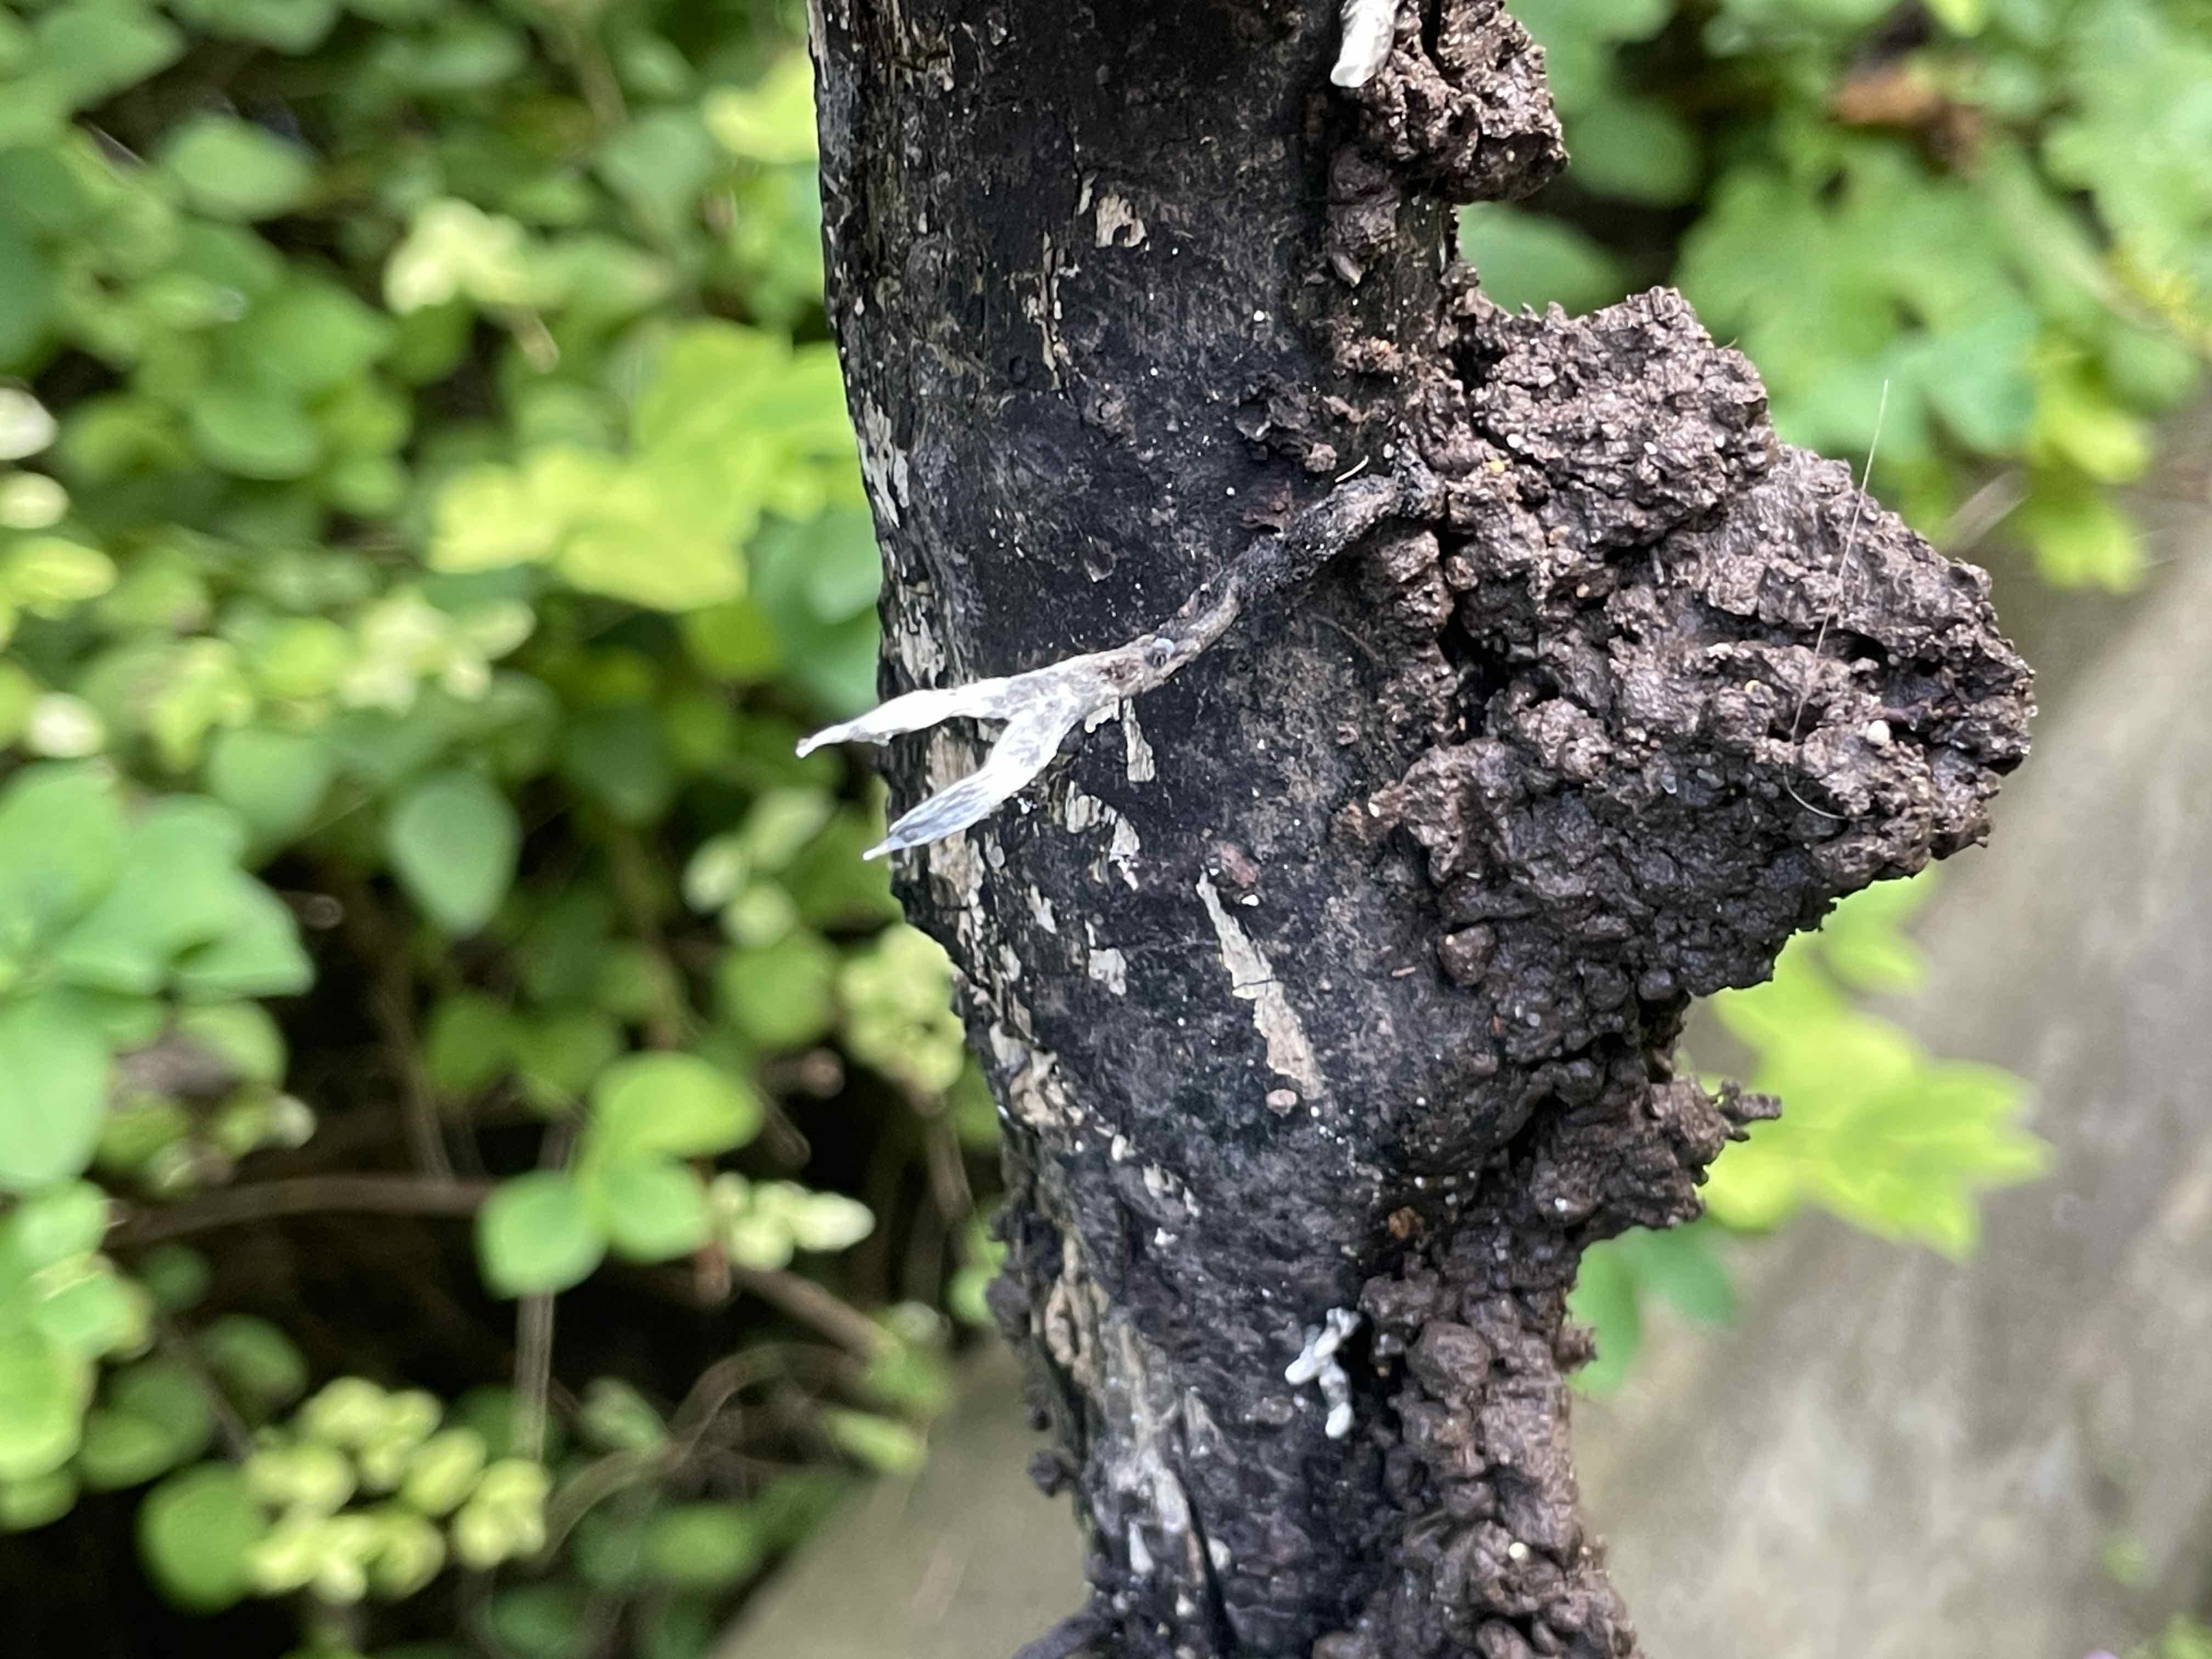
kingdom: Fungi
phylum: Ascomycota
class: Sordariomycetes
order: Xylariales
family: Xylariaceae
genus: Xylaria
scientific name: Xylaria hypoxylon
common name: grenet stødsvamp
